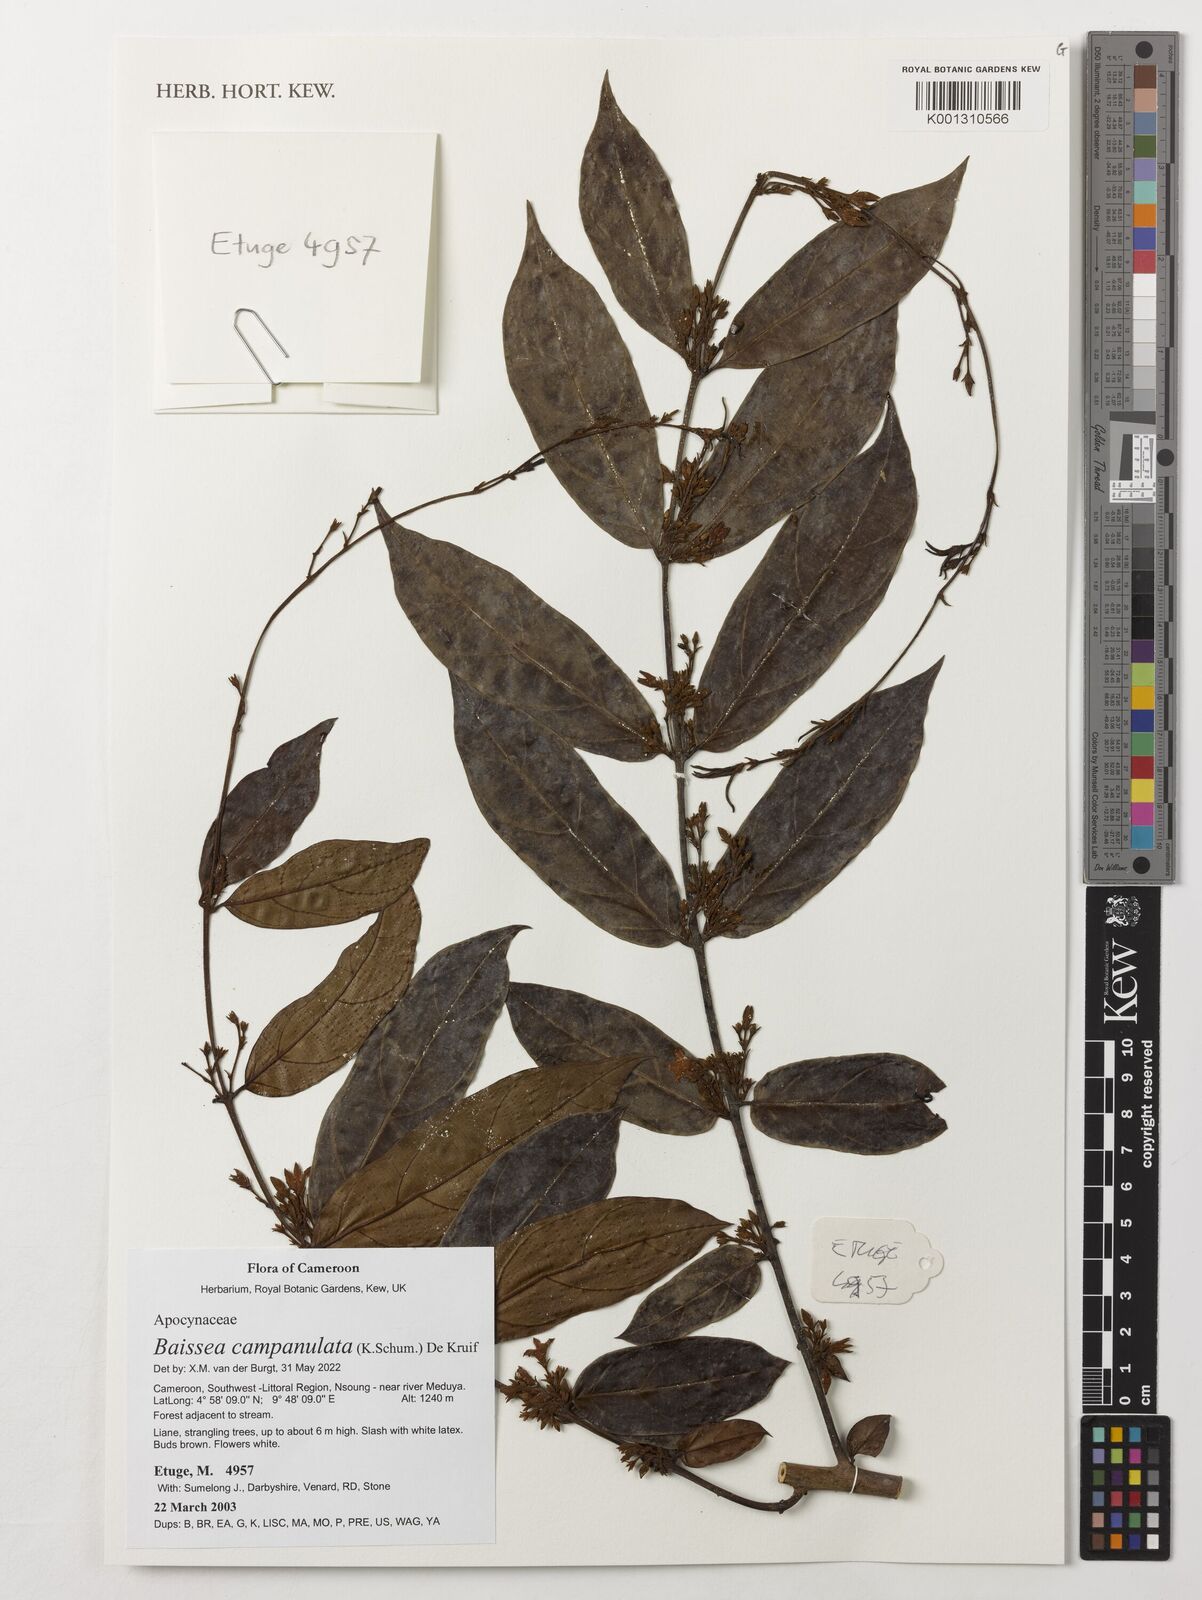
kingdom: Plantae
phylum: Tracheophyta
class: Magnoliopsida
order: Gentianales
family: Apocynaceae
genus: Baissea
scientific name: Baissea campanulata
